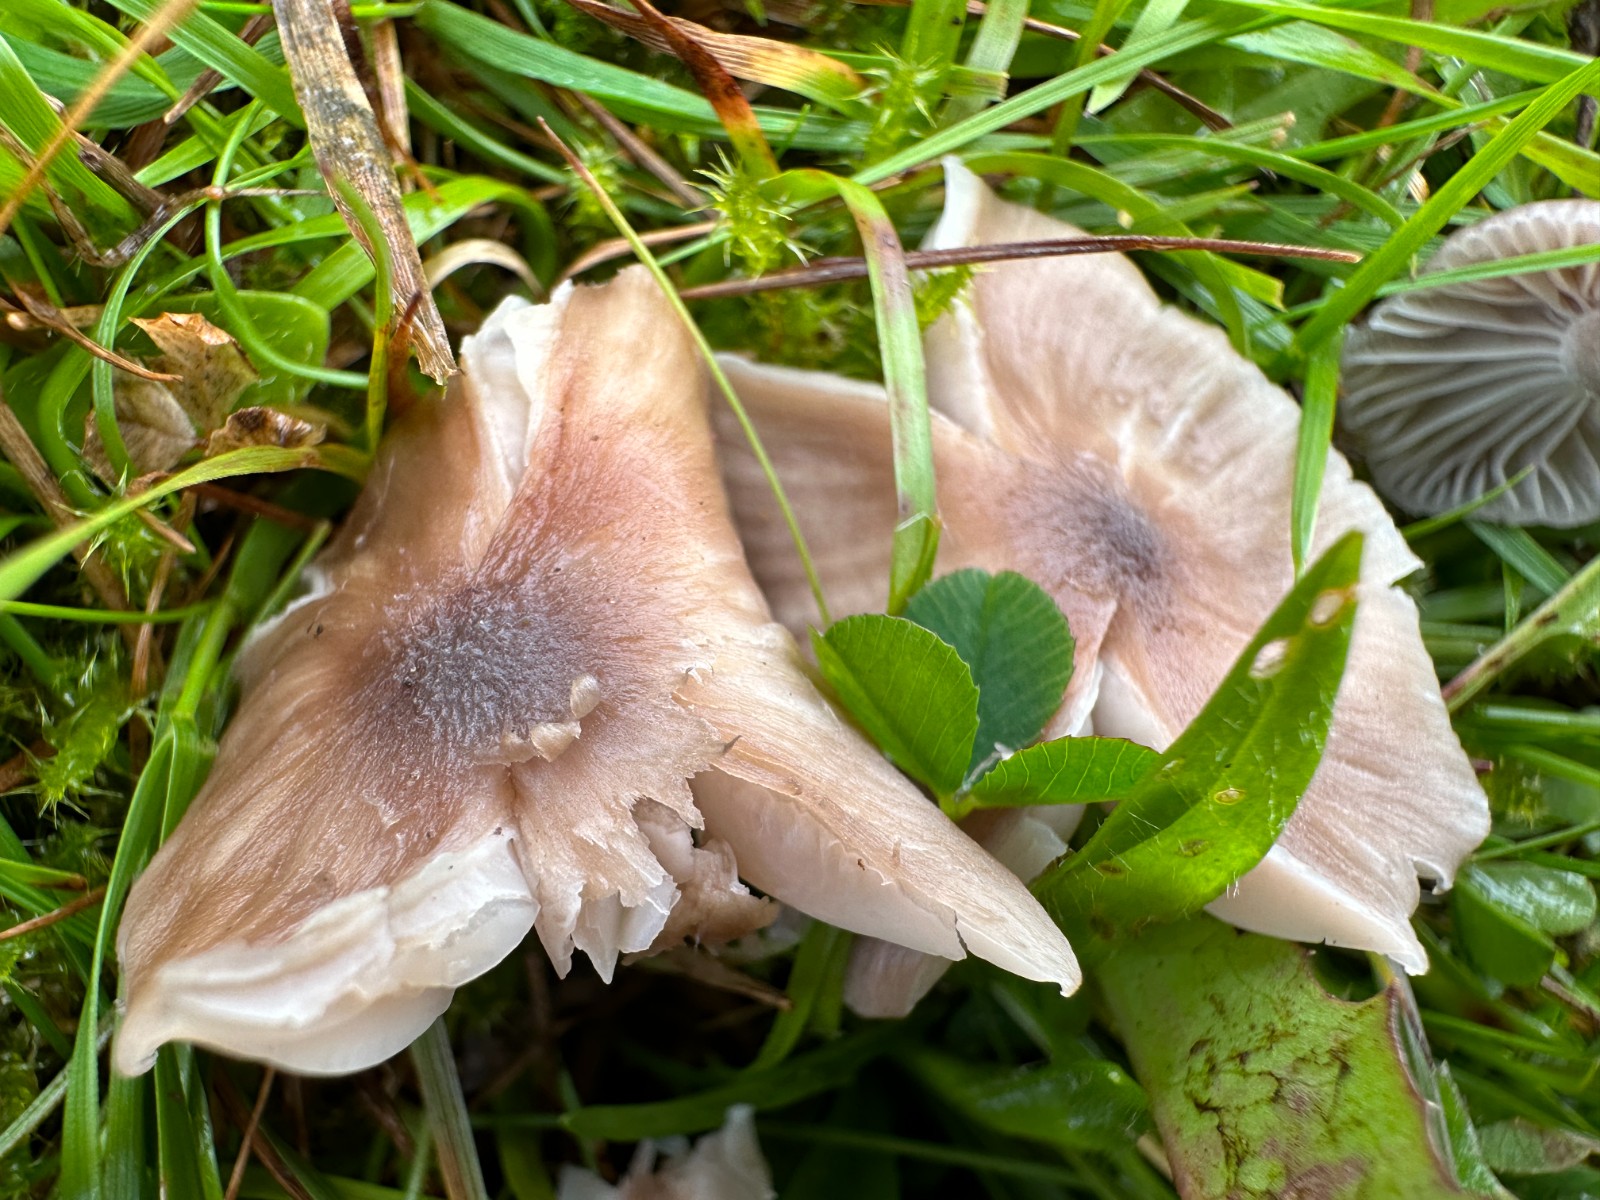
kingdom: Fungi
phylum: Basidiomycota
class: Agaricomycetes
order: Agaricales
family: Hygrophoraceae
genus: Cuphophyllus
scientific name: Cuphophyllus
